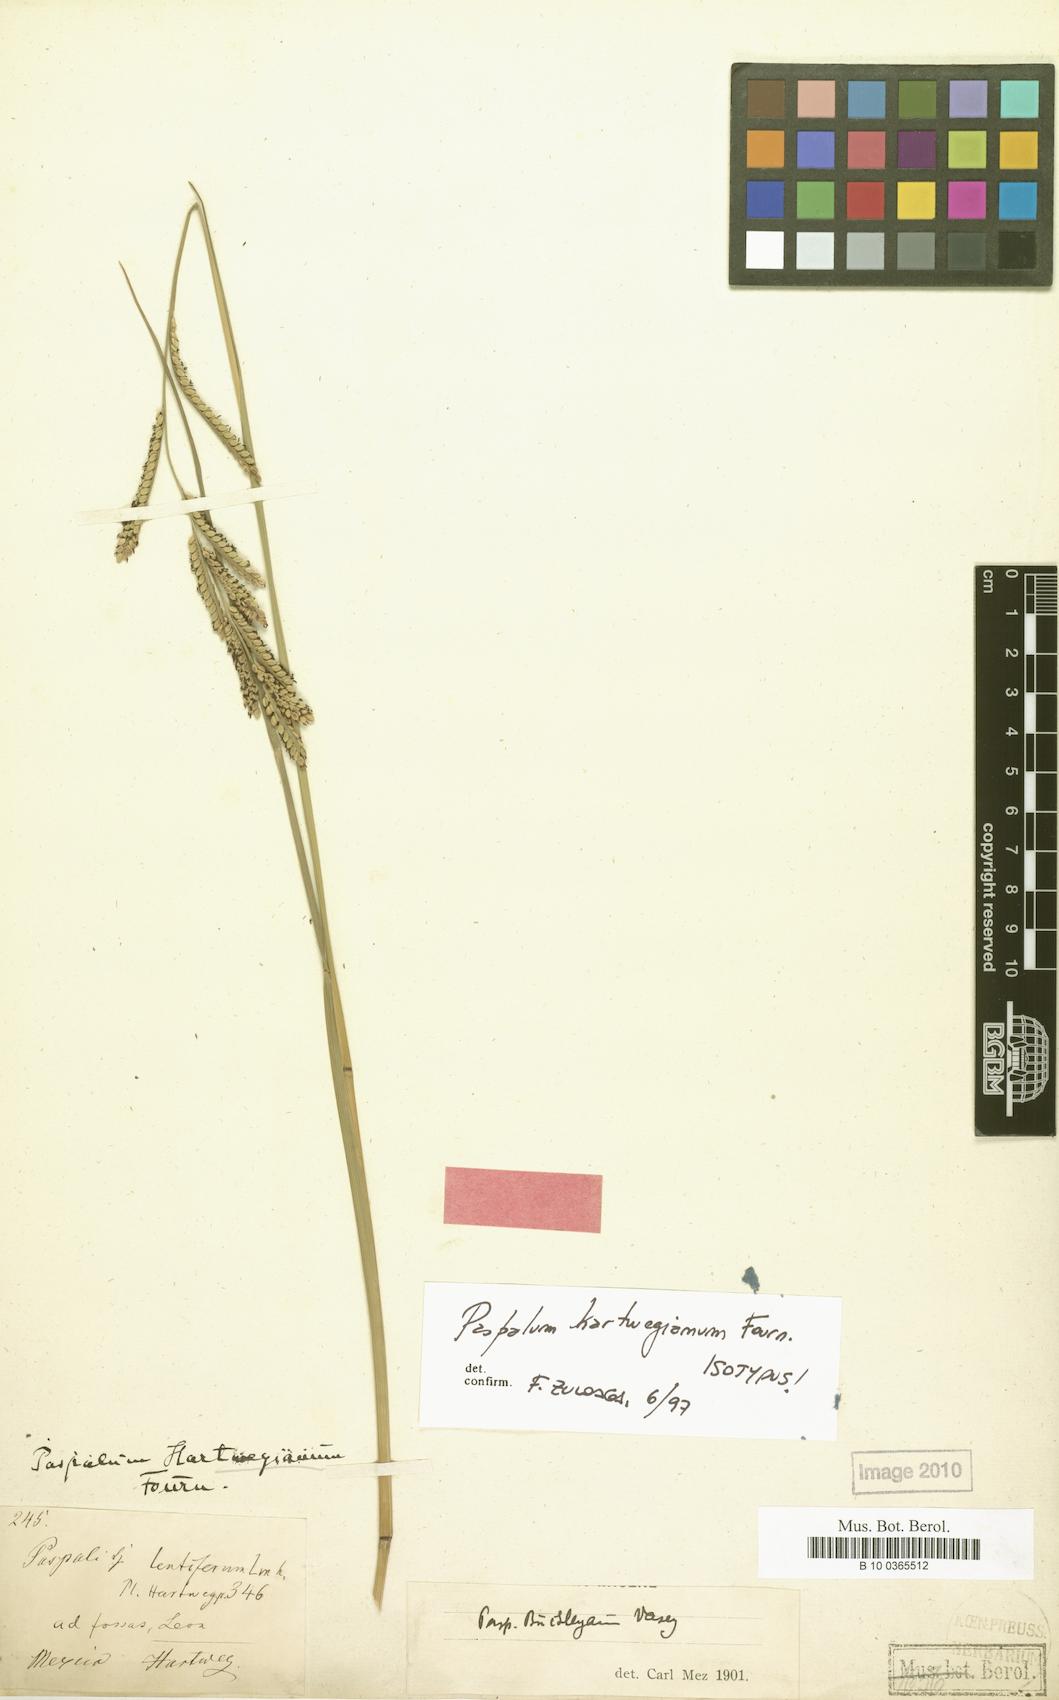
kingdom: Plantae
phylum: Tracheophyta
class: Liliopsida
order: Poales
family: Poaceae
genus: Paspalum
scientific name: Paspalum hartwegianum
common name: Hartweg's paspalum
